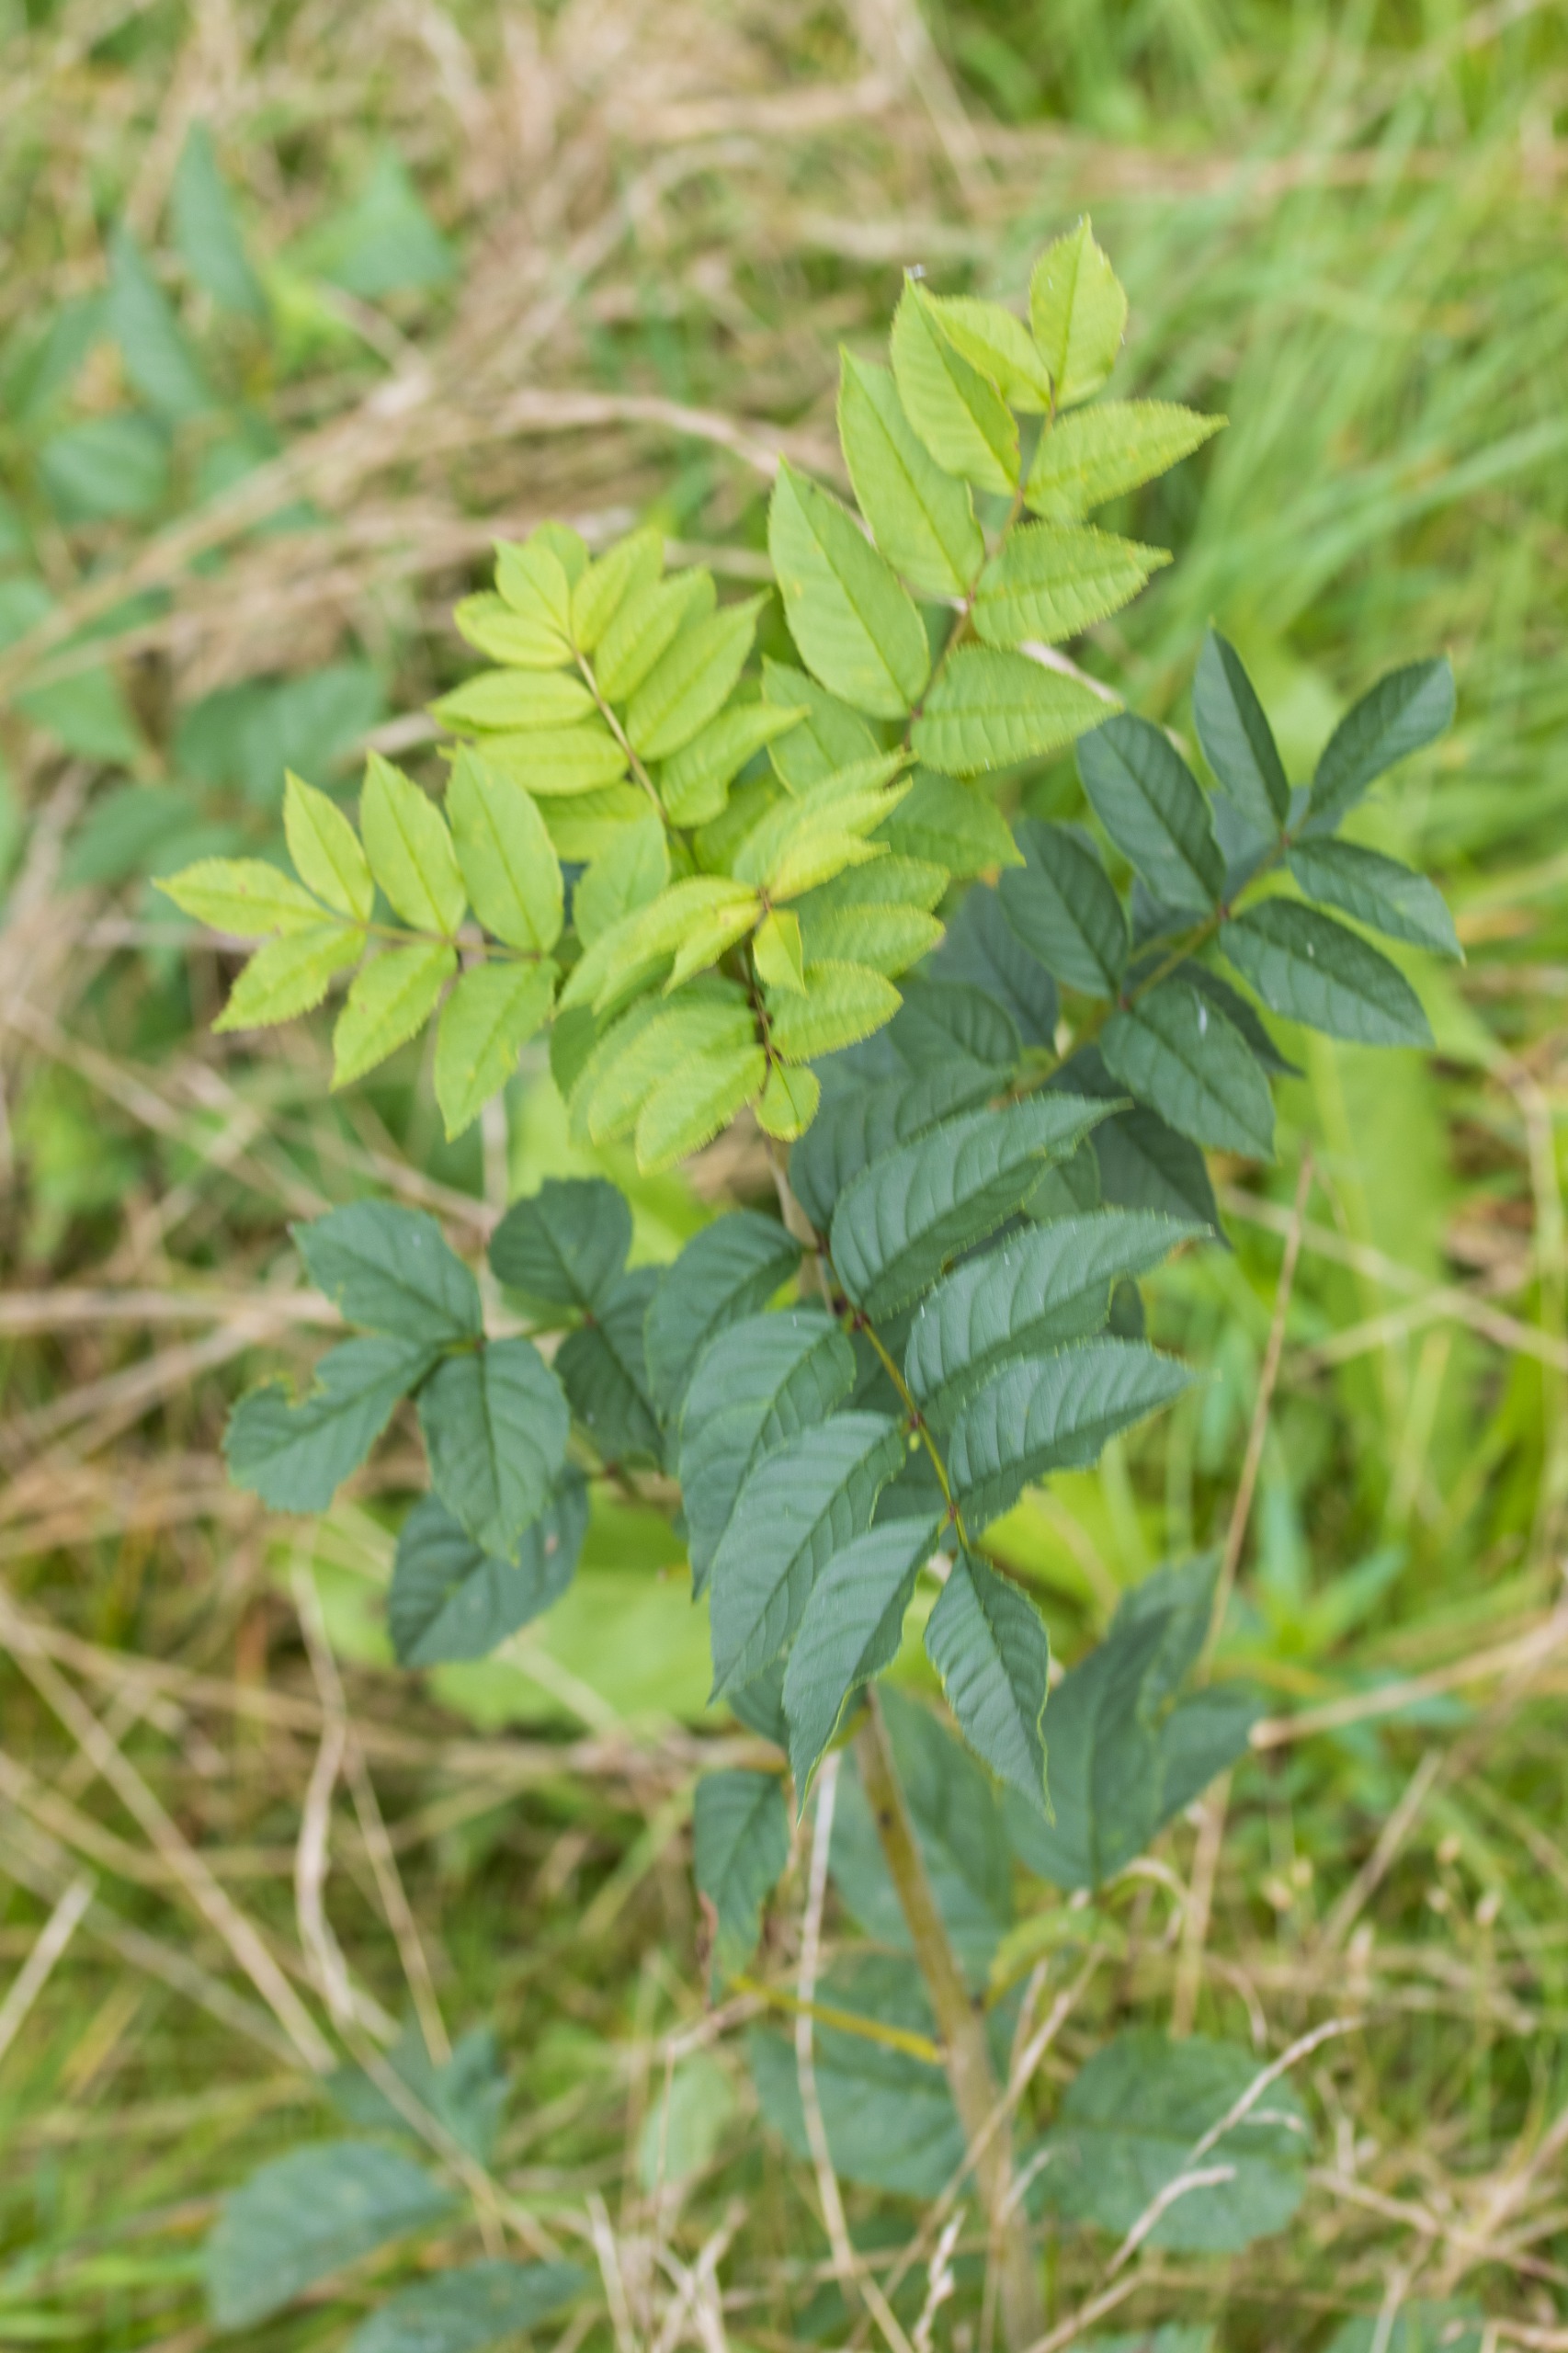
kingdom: Plantae
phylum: Tracheophyta
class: Magnoliopsida
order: Lamiales
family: Oleaceae
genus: Fraxinus
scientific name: Fraxinus excelsior
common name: Ask
